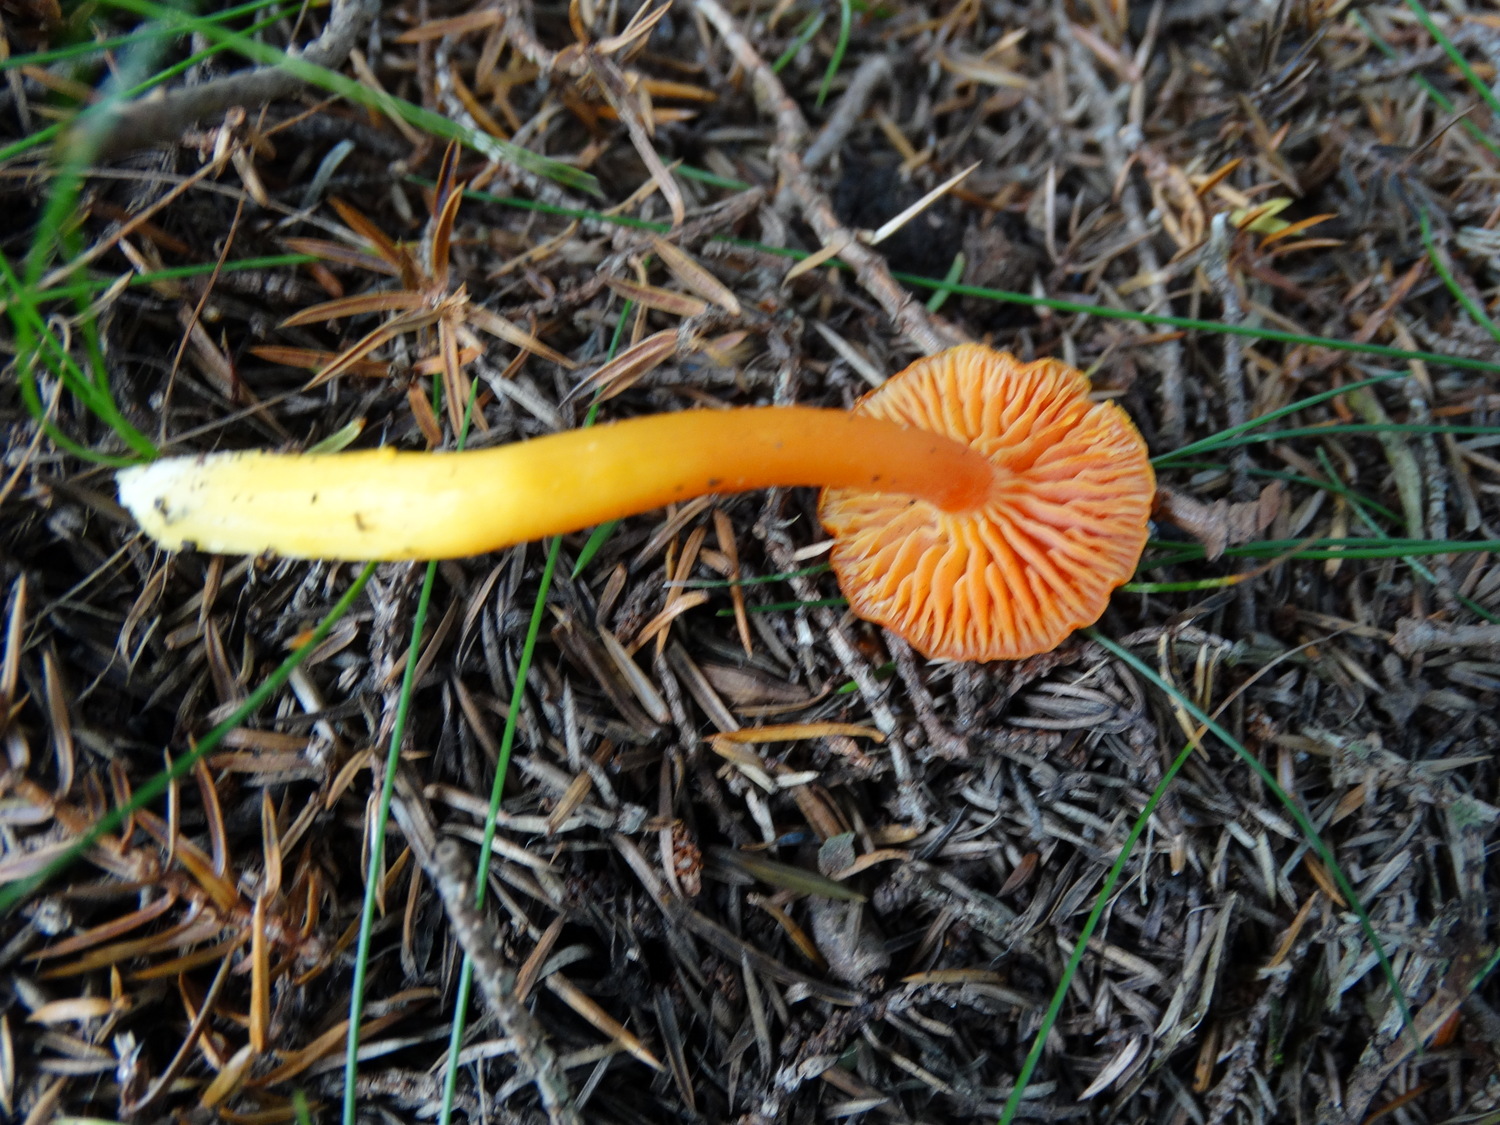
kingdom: Fungi
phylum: Basidiomycota
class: Agaricomycetes
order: Agaricales
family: Hygrophoraceae
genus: Hygrocybe
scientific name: Hygrocybe miniata
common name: mønje-vokshat
